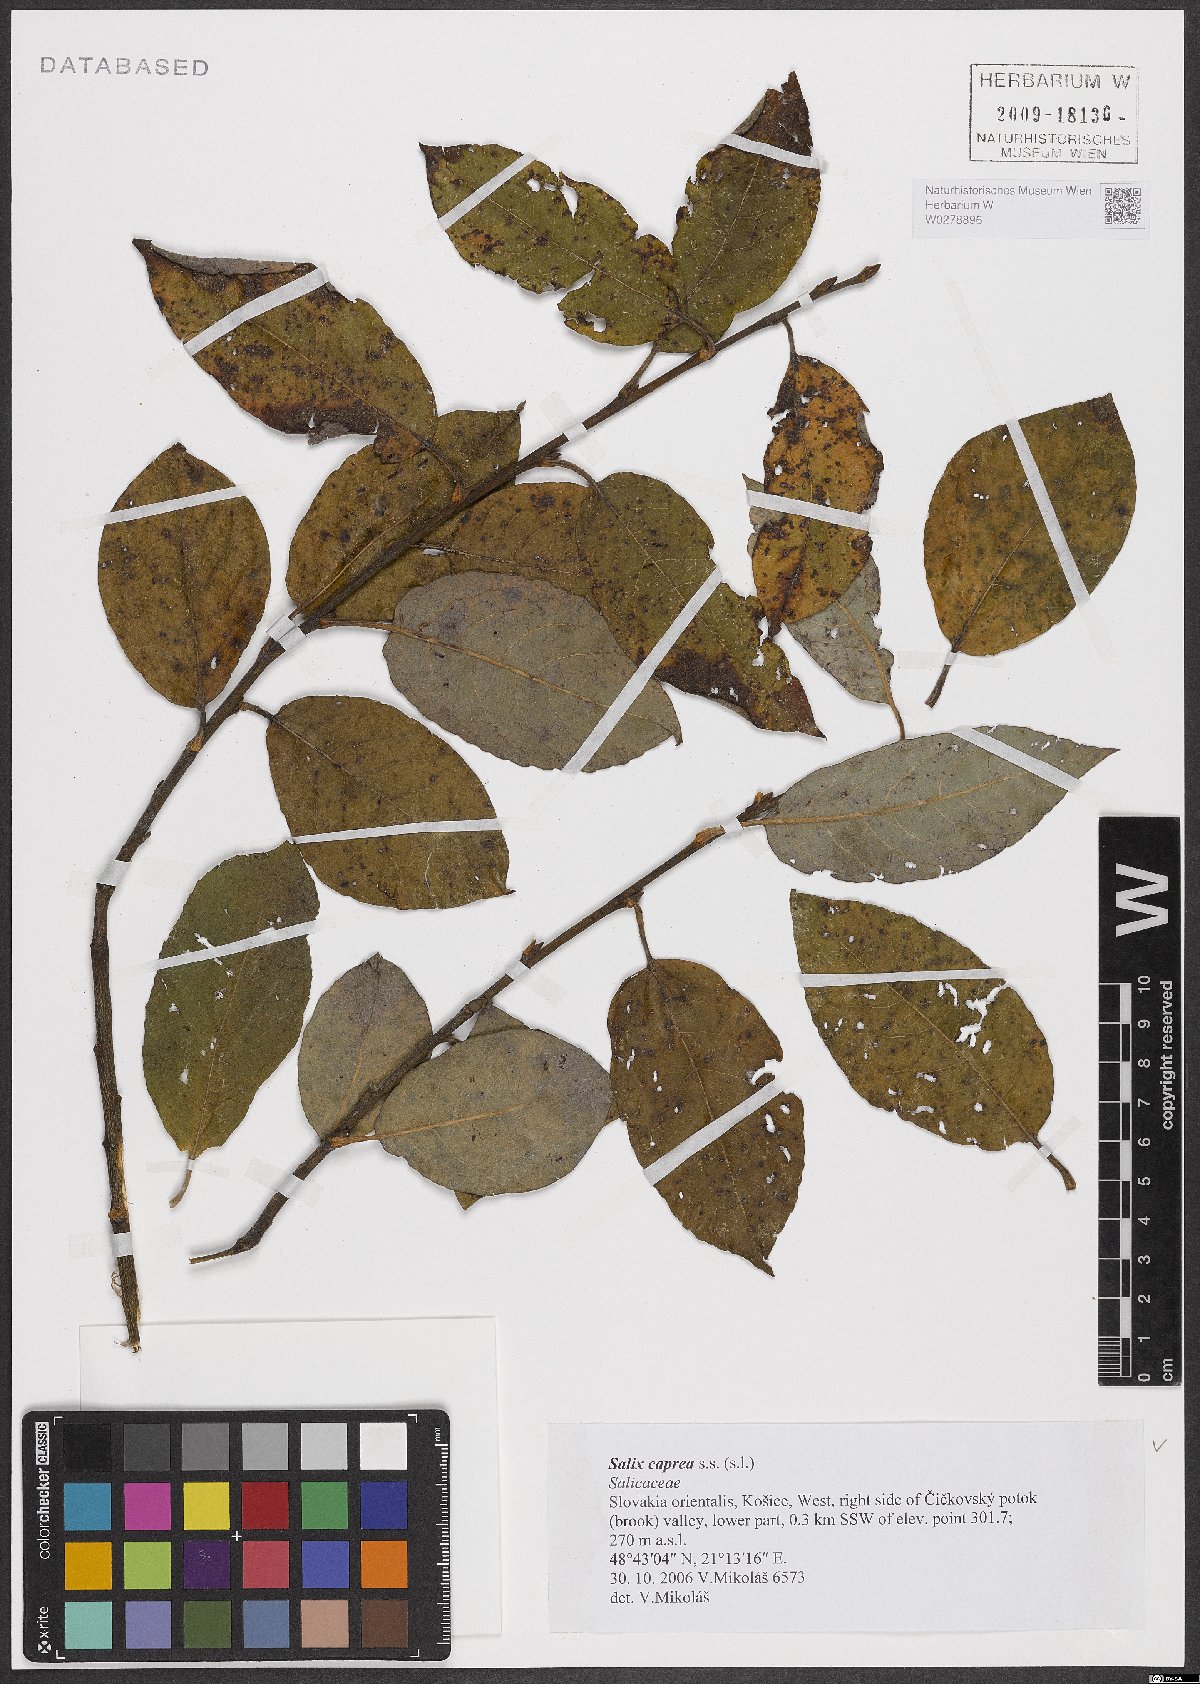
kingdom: Plantae
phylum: Tracheophyta
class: Magnoliopsida
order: Malpighiales
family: Salicaceae
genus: Salix
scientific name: Salix caprea
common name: Goat willow
